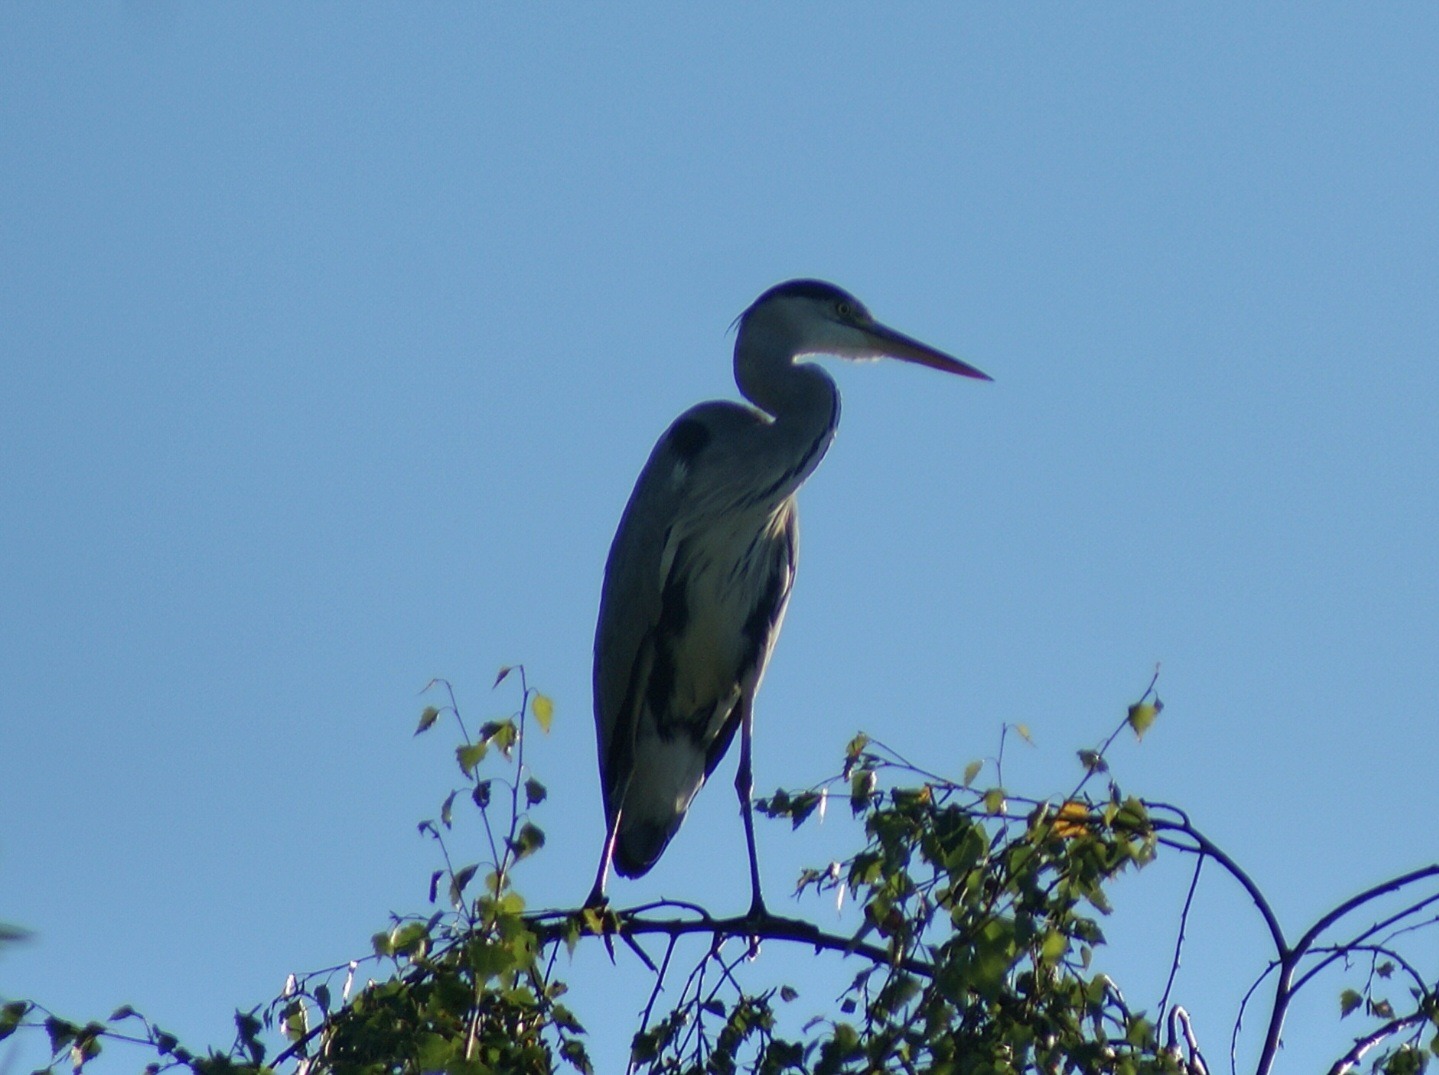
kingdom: Animalia
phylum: Chordata
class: Aves
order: Pelecaniformes
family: Ardeidae
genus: Ardea
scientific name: Ardea cinerea
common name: Fiskehejre
